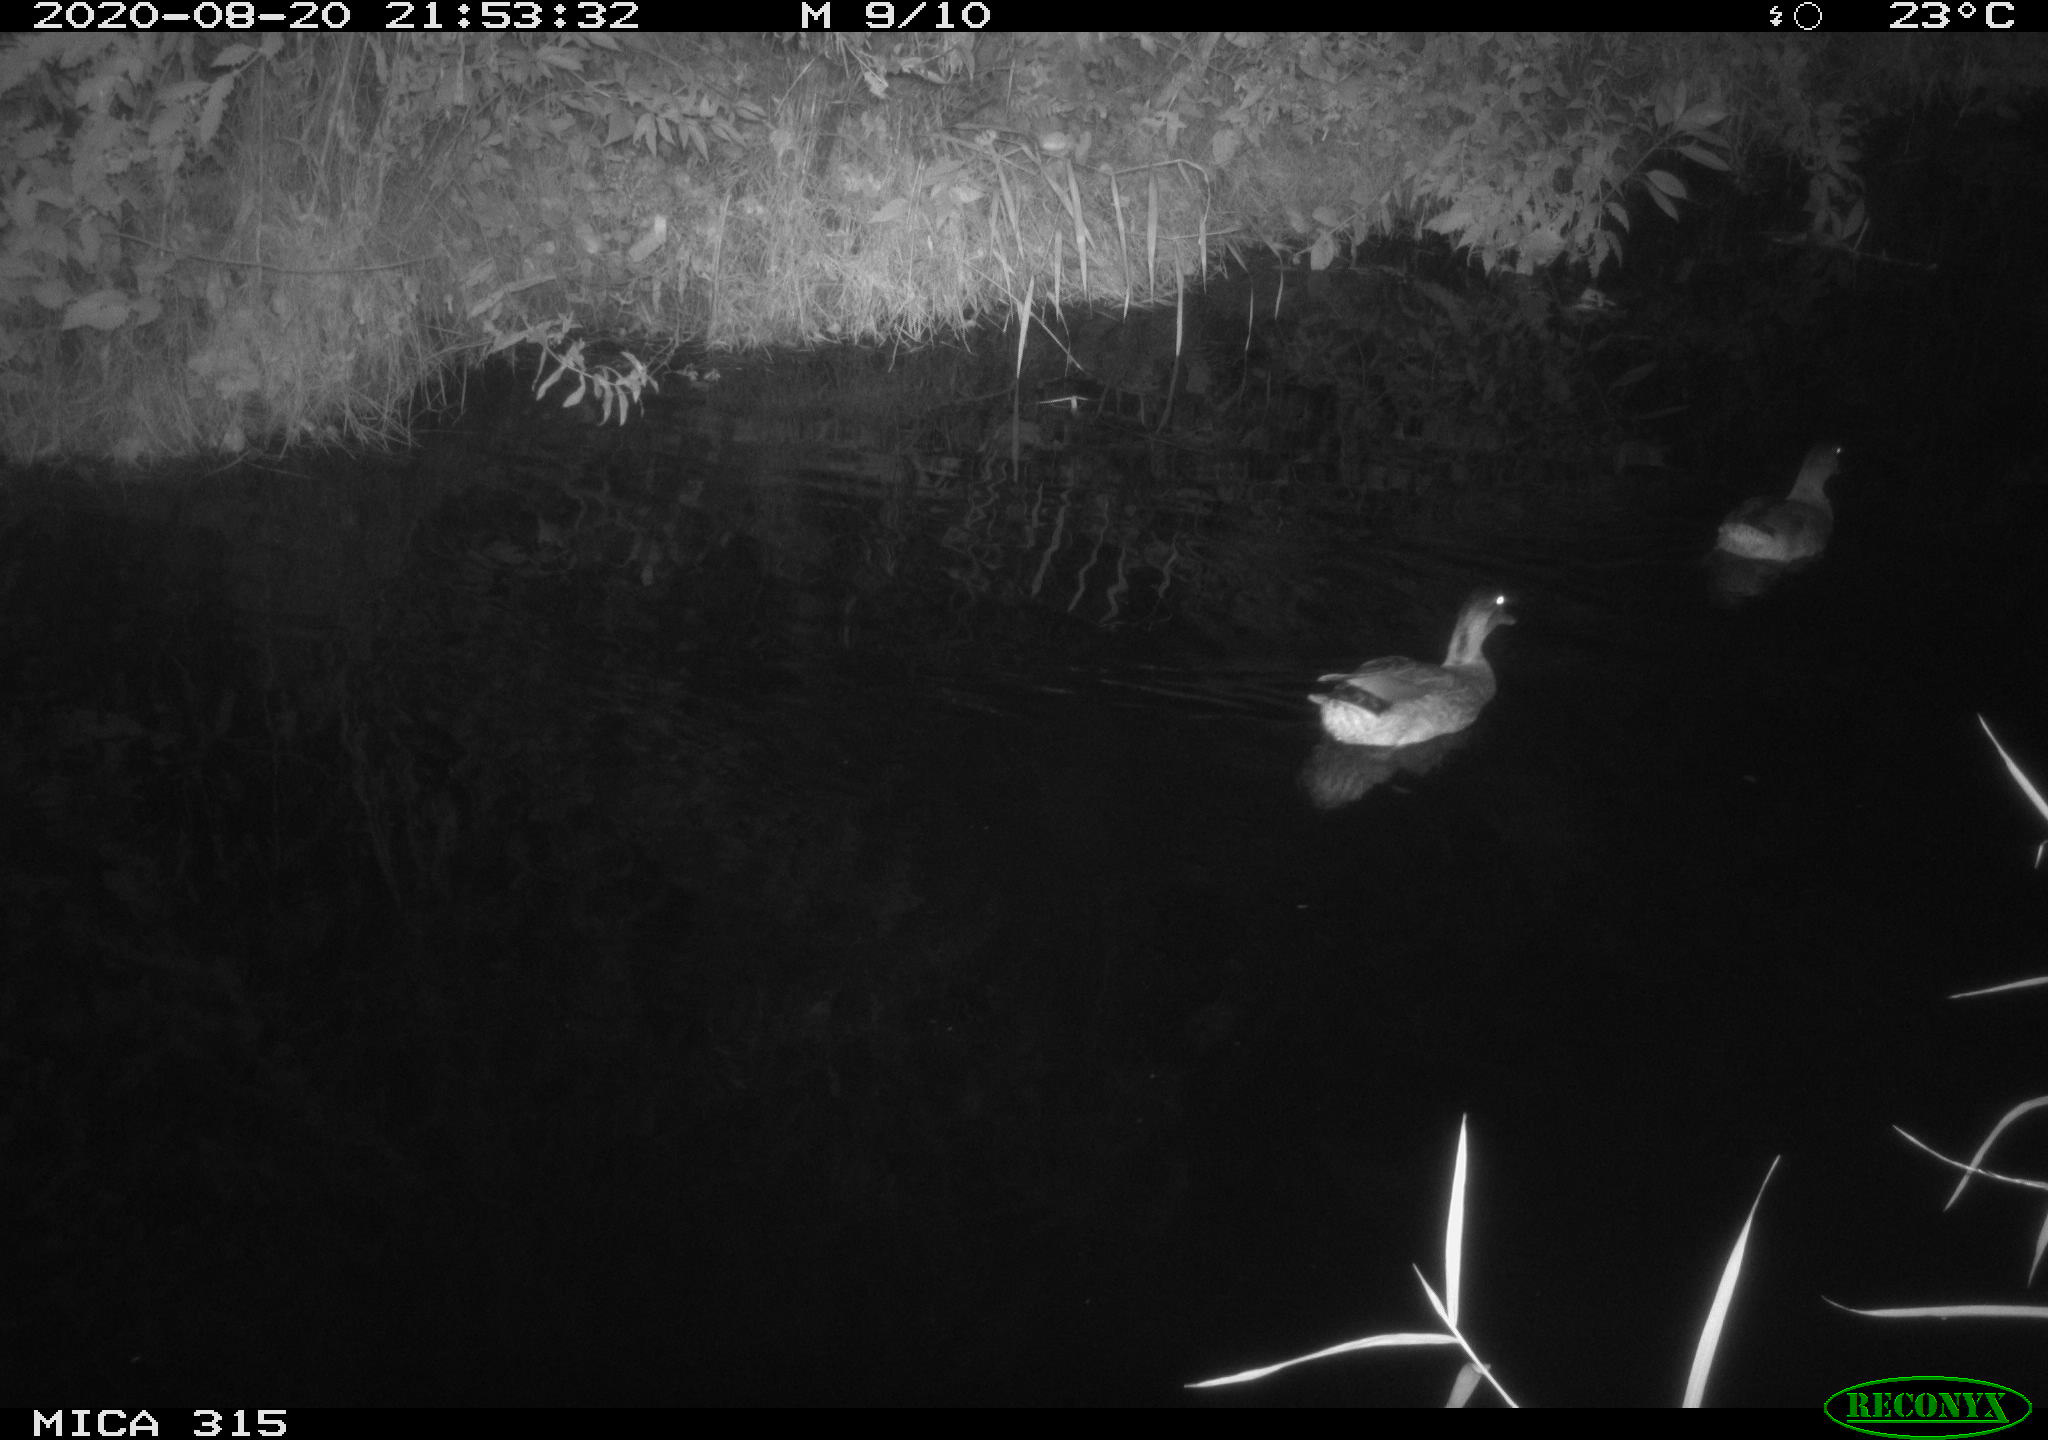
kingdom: Animalia
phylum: Chordata
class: Aves
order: Anseriformes
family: Anatidae
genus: Anas
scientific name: Anas platyrhynchos
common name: Mallard
